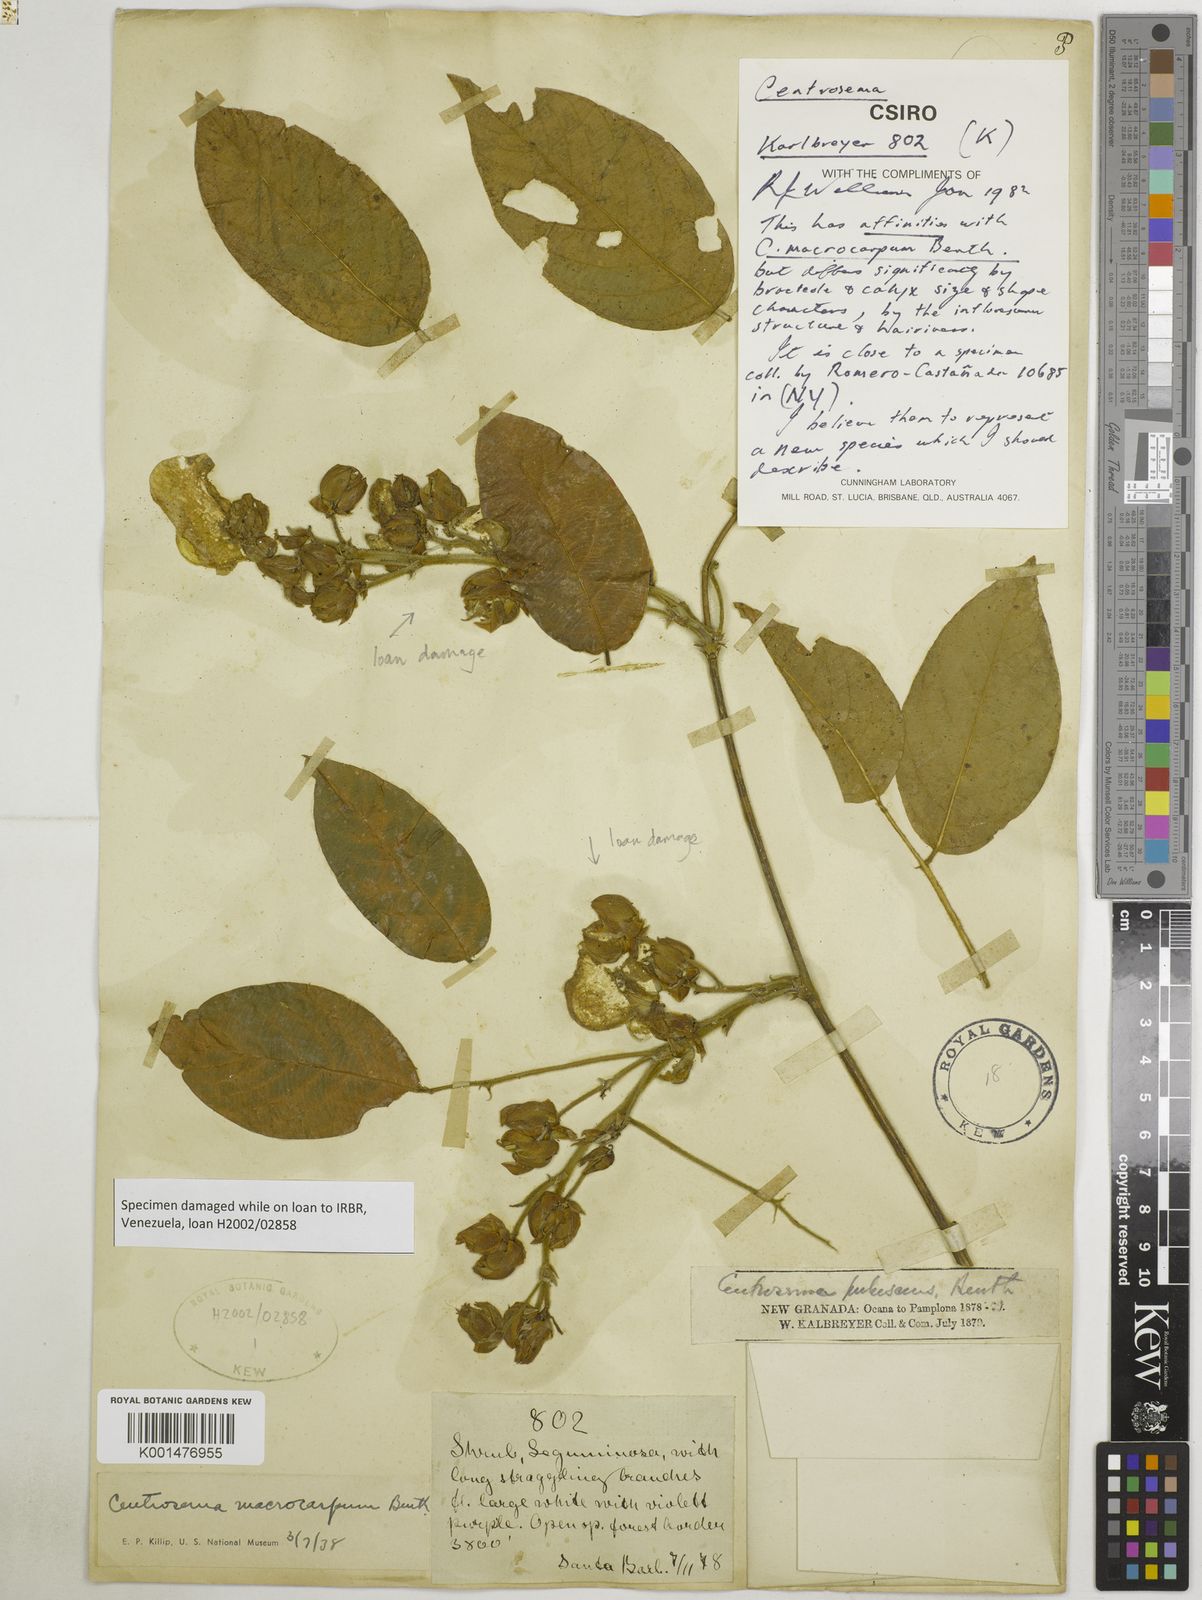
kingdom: Plantae
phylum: Tracheophyta
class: Magnoliopsida
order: Fabales
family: Fabaceae
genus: Centrosema
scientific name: Centrosema macrocarpum
